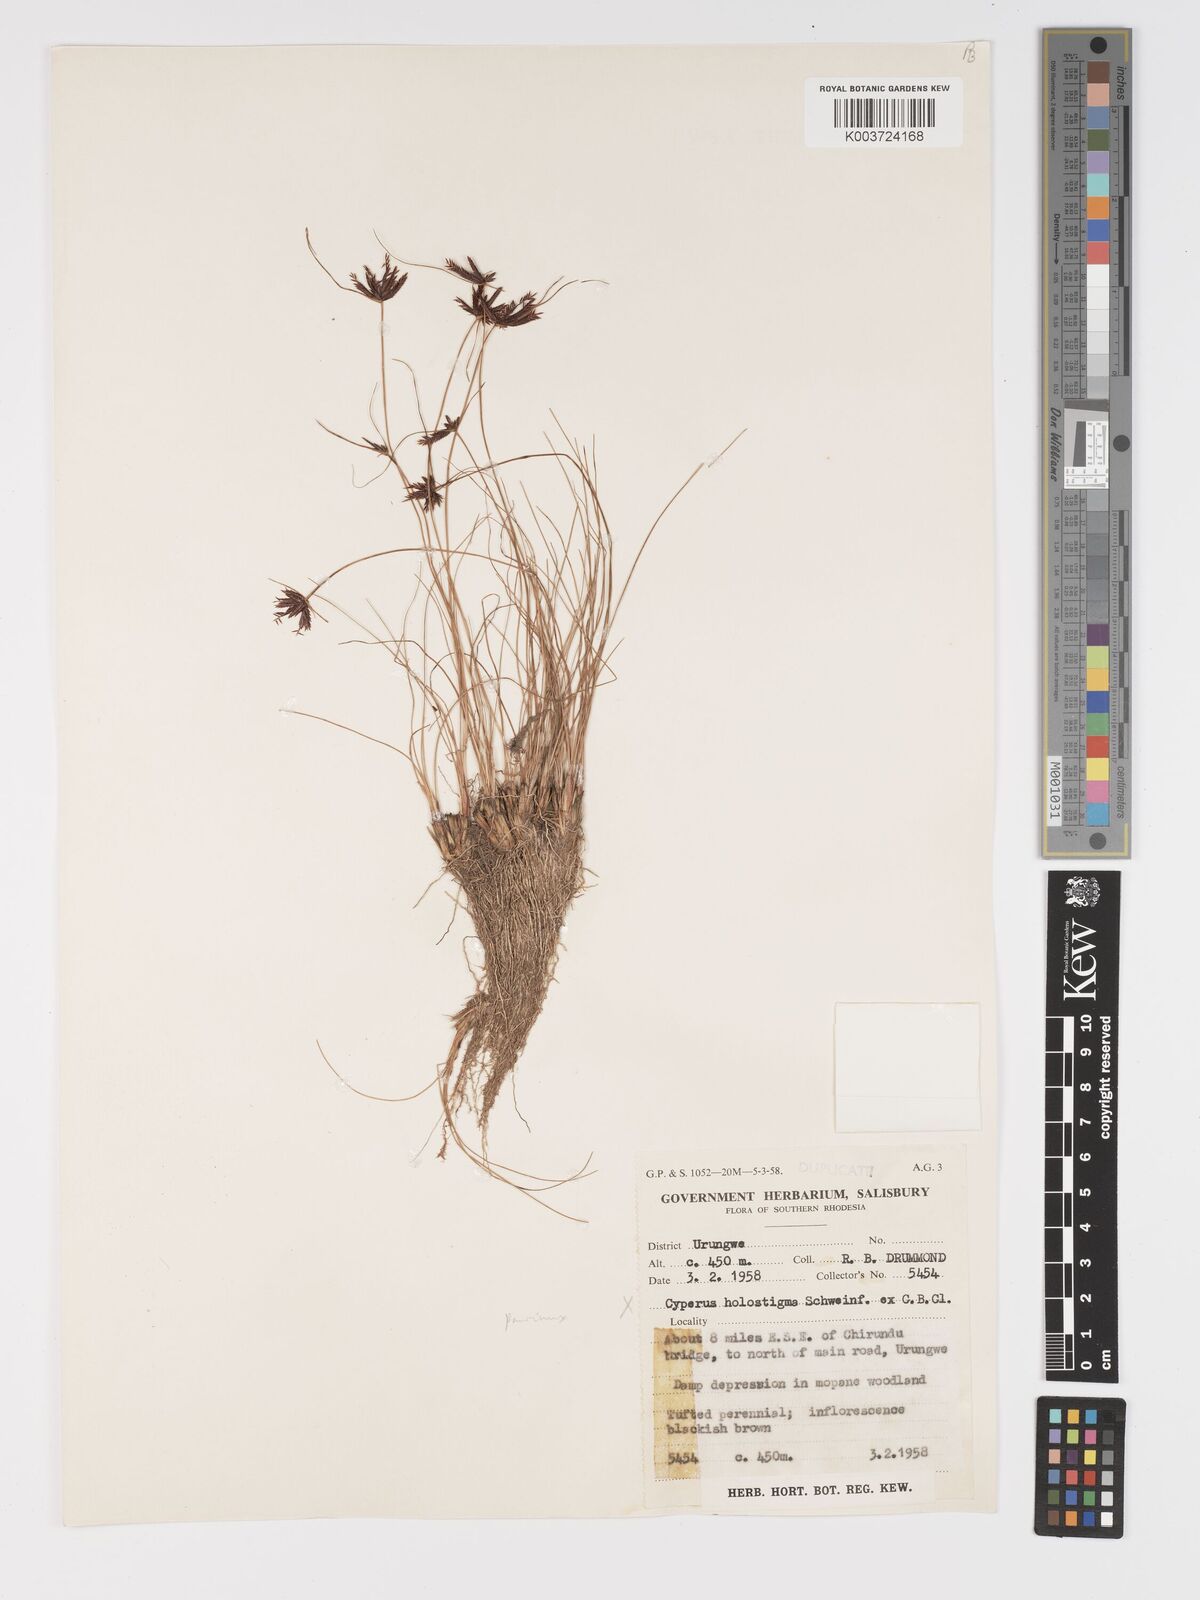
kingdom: Plantae
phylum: Tracheophyta
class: Liliopsida
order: Poales
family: Cyperaceae
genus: Cyperus
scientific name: Cyperus rupestris
